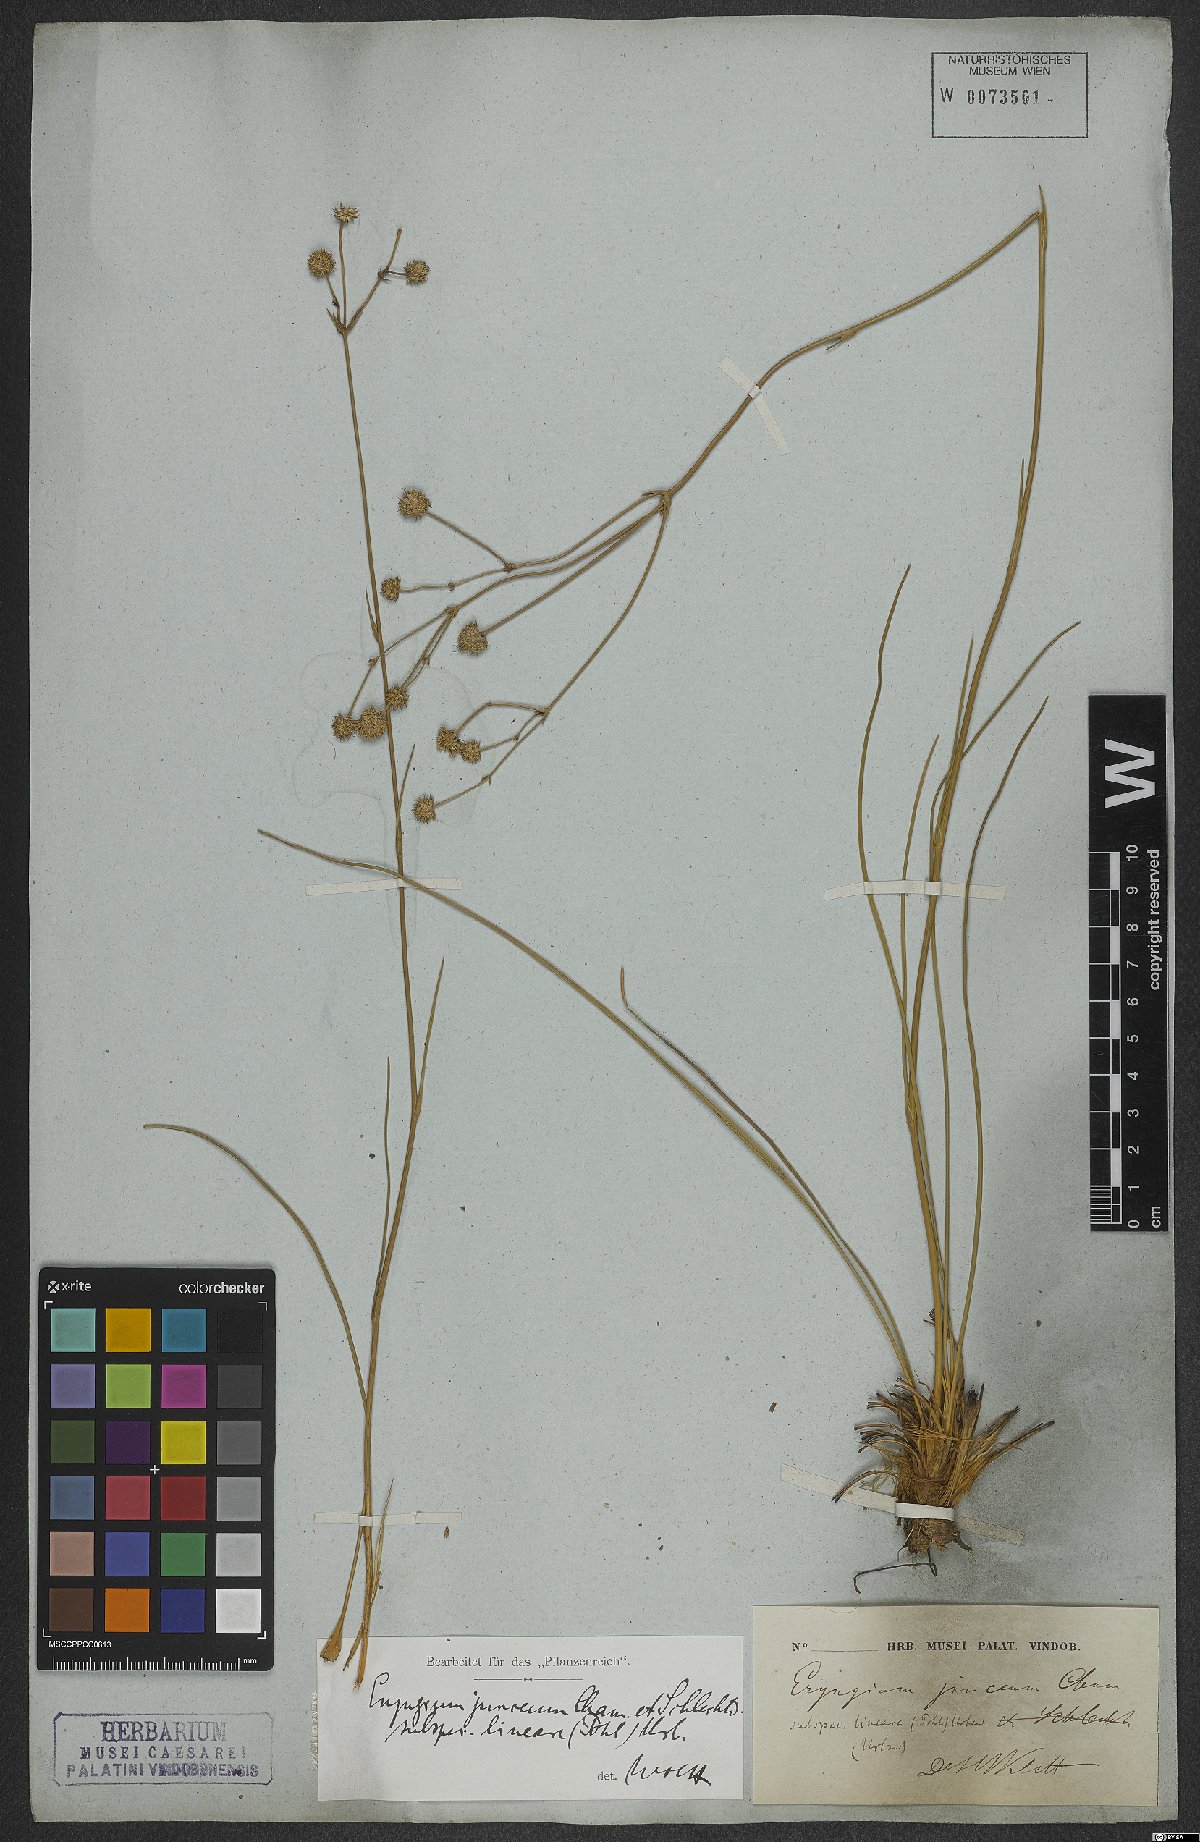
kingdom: Plantae
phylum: Tracheophyta
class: Magnoliopsida
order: Apiales
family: Apiaceae
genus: Eryngium
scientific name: Eryngium junceum
